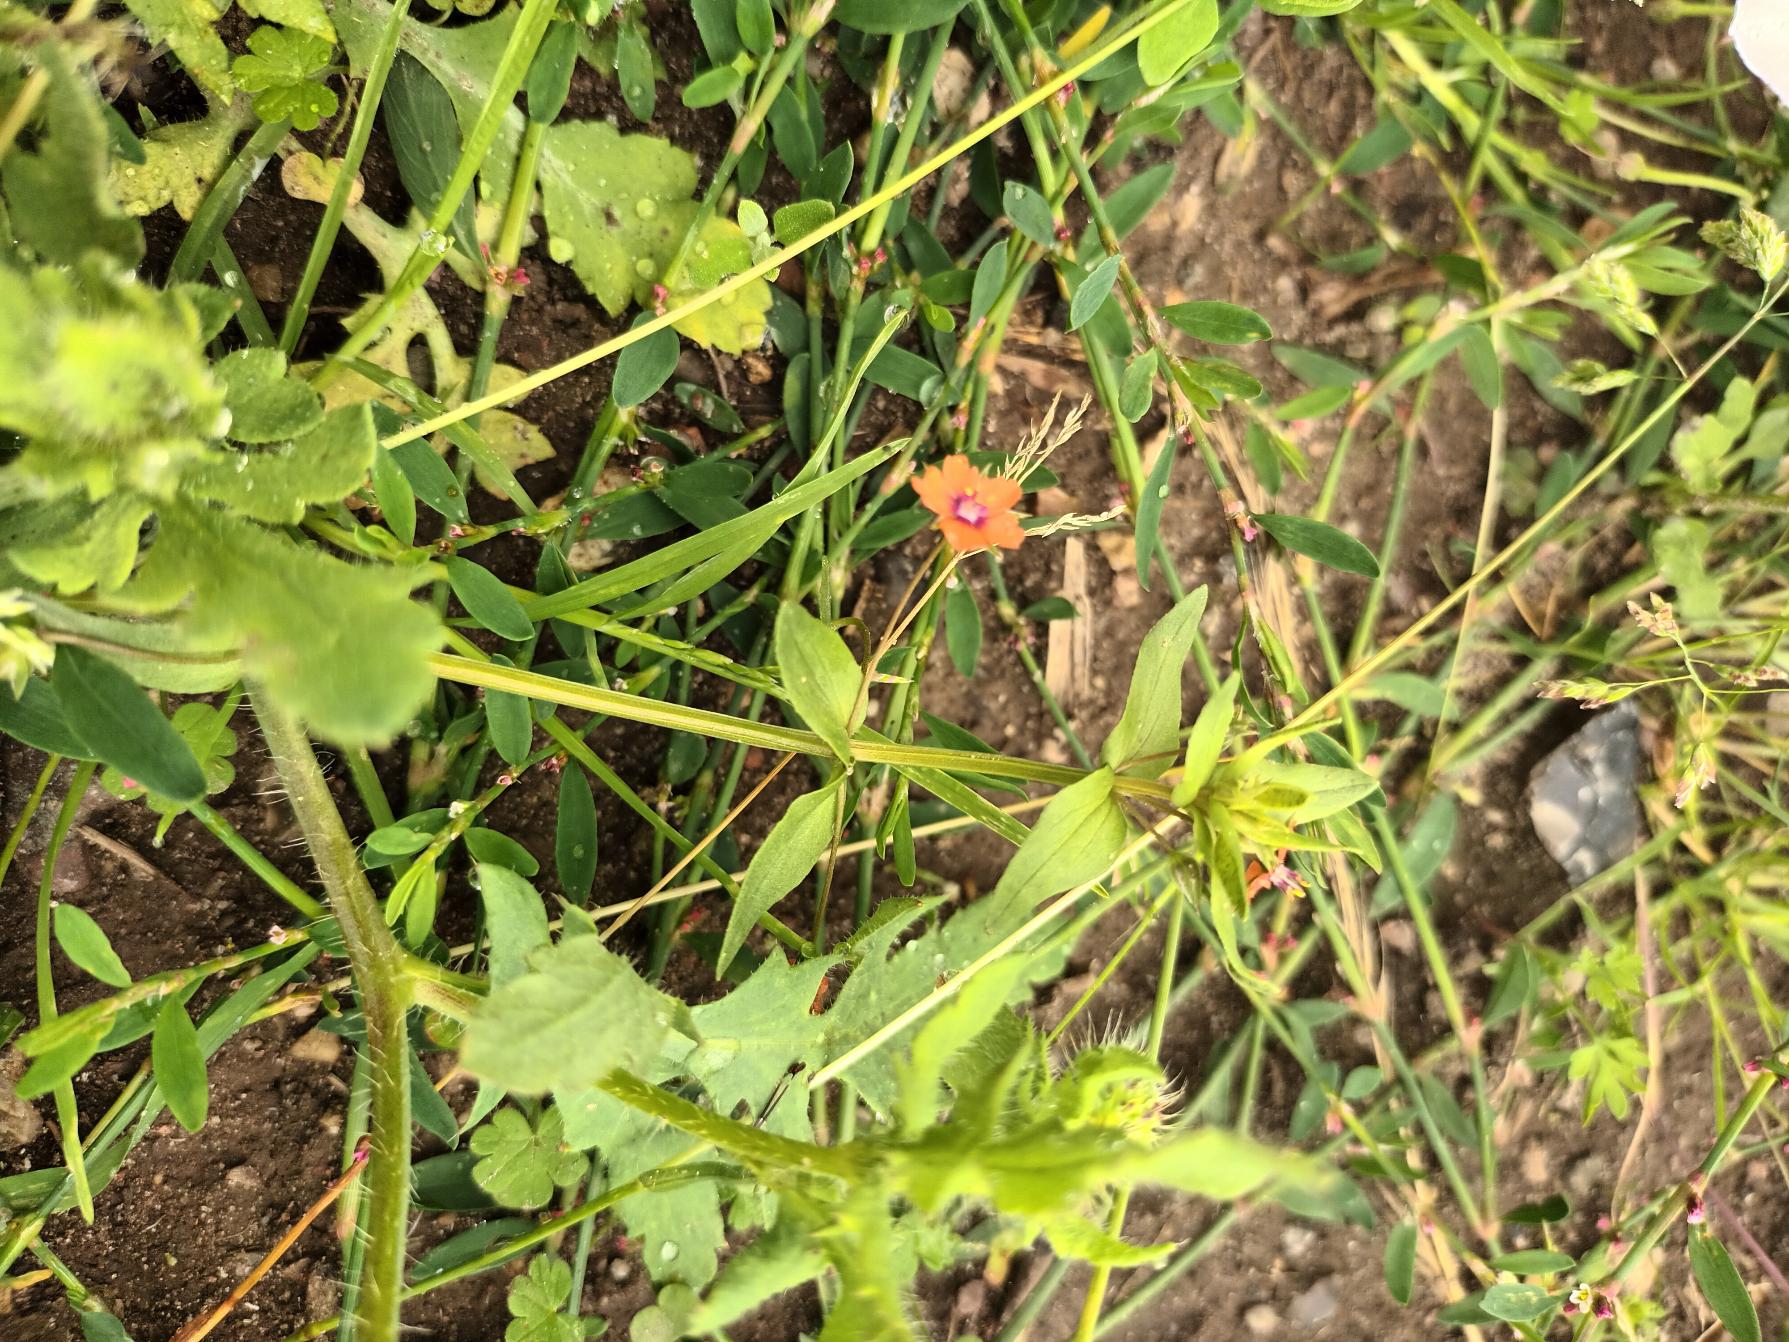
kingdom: Plantae
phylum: Tracheophyta
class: Magnoliopsida
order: Ericales
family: Primulaceae
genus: Lysimachia
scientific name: Lysimachia arvensis
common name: Rød arve
